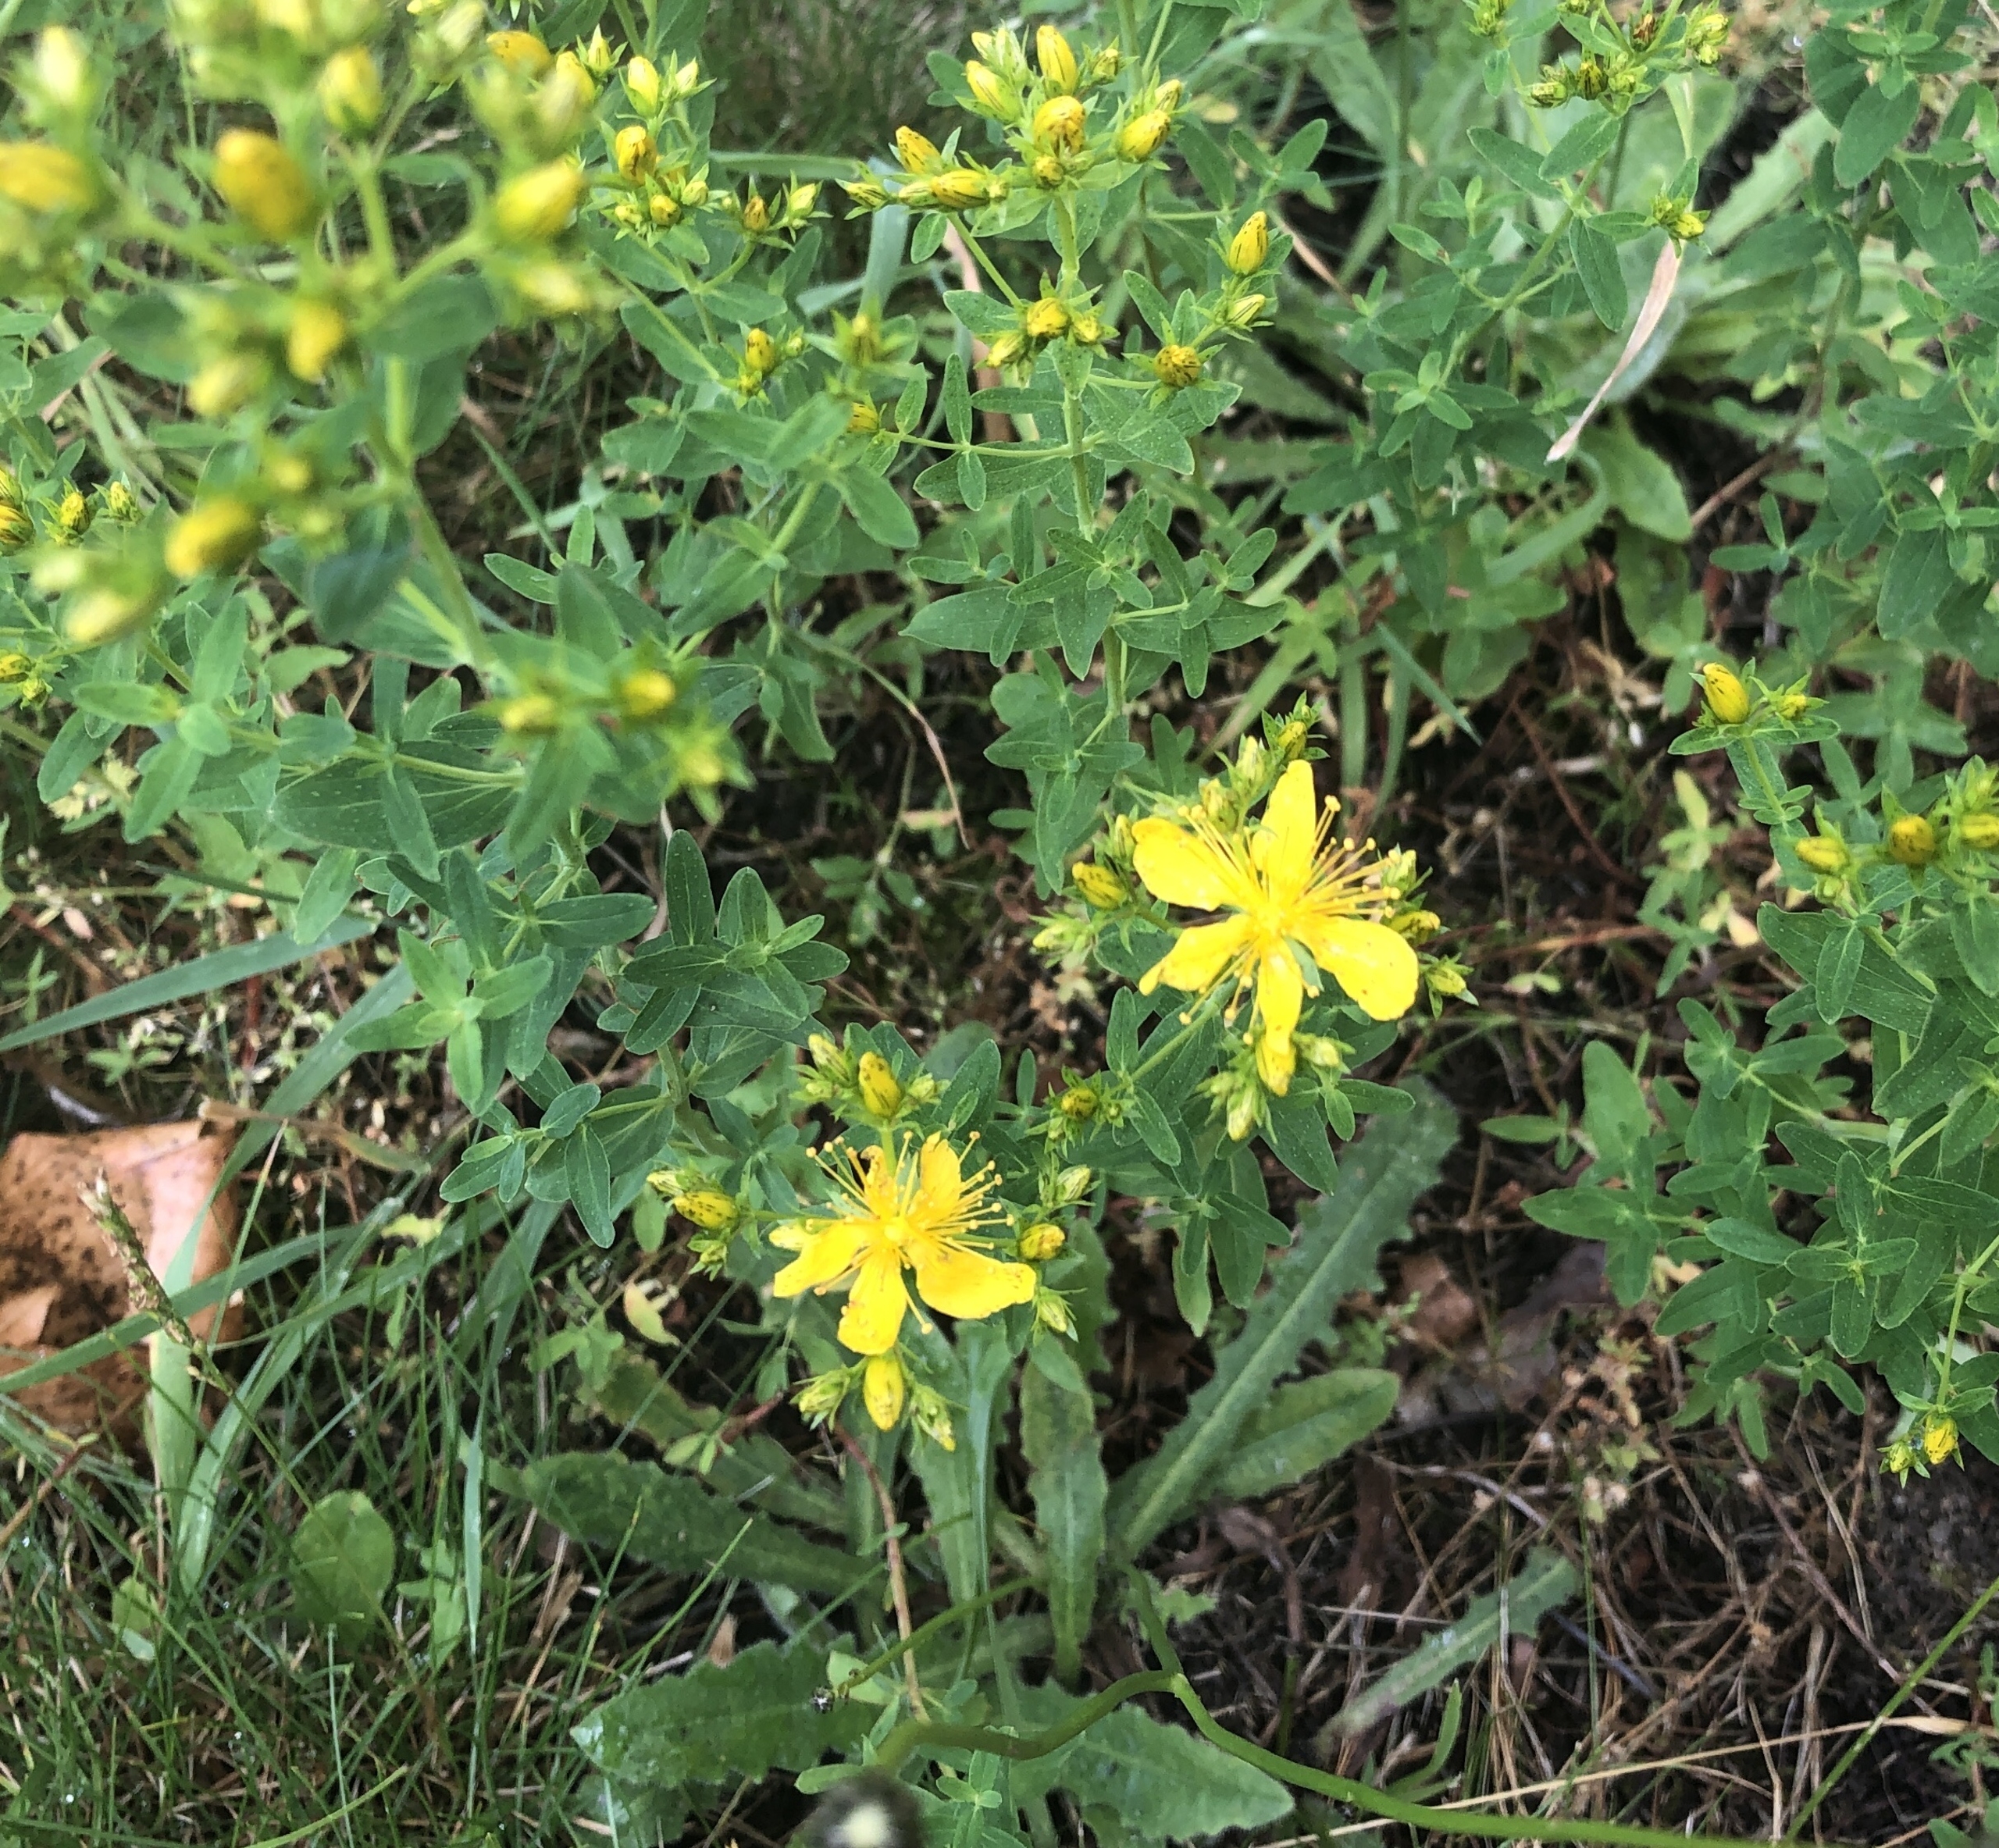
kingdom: Plantae
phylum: Tracheophyta
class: Magnoliopsida
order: Malpighiales
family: Hypericaceae
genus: Hypericum
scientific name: Hypericum perforatum
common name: Prikbladet perikon
